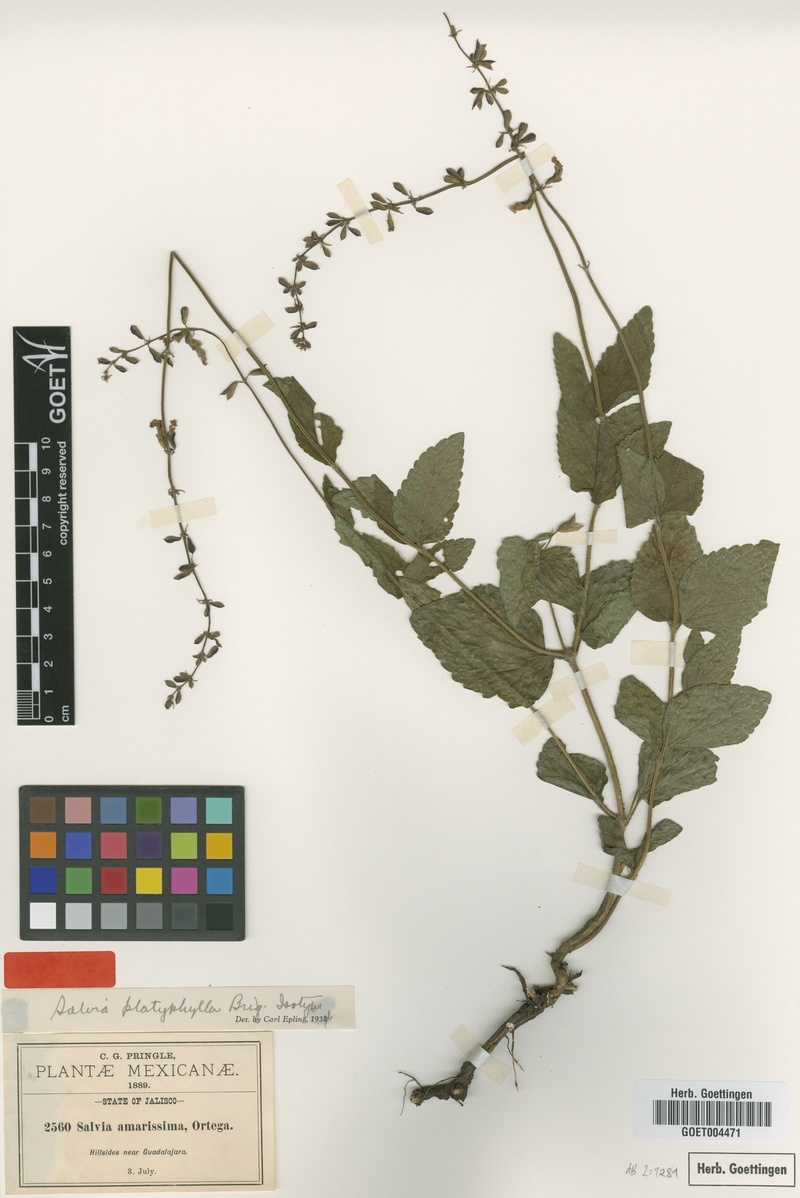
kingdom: Plantae
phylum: Tracheophyta
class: Magnoliopsida
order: Lamiales
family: Lamiaceae
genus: Salvia
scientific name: Salvia platyphylla
